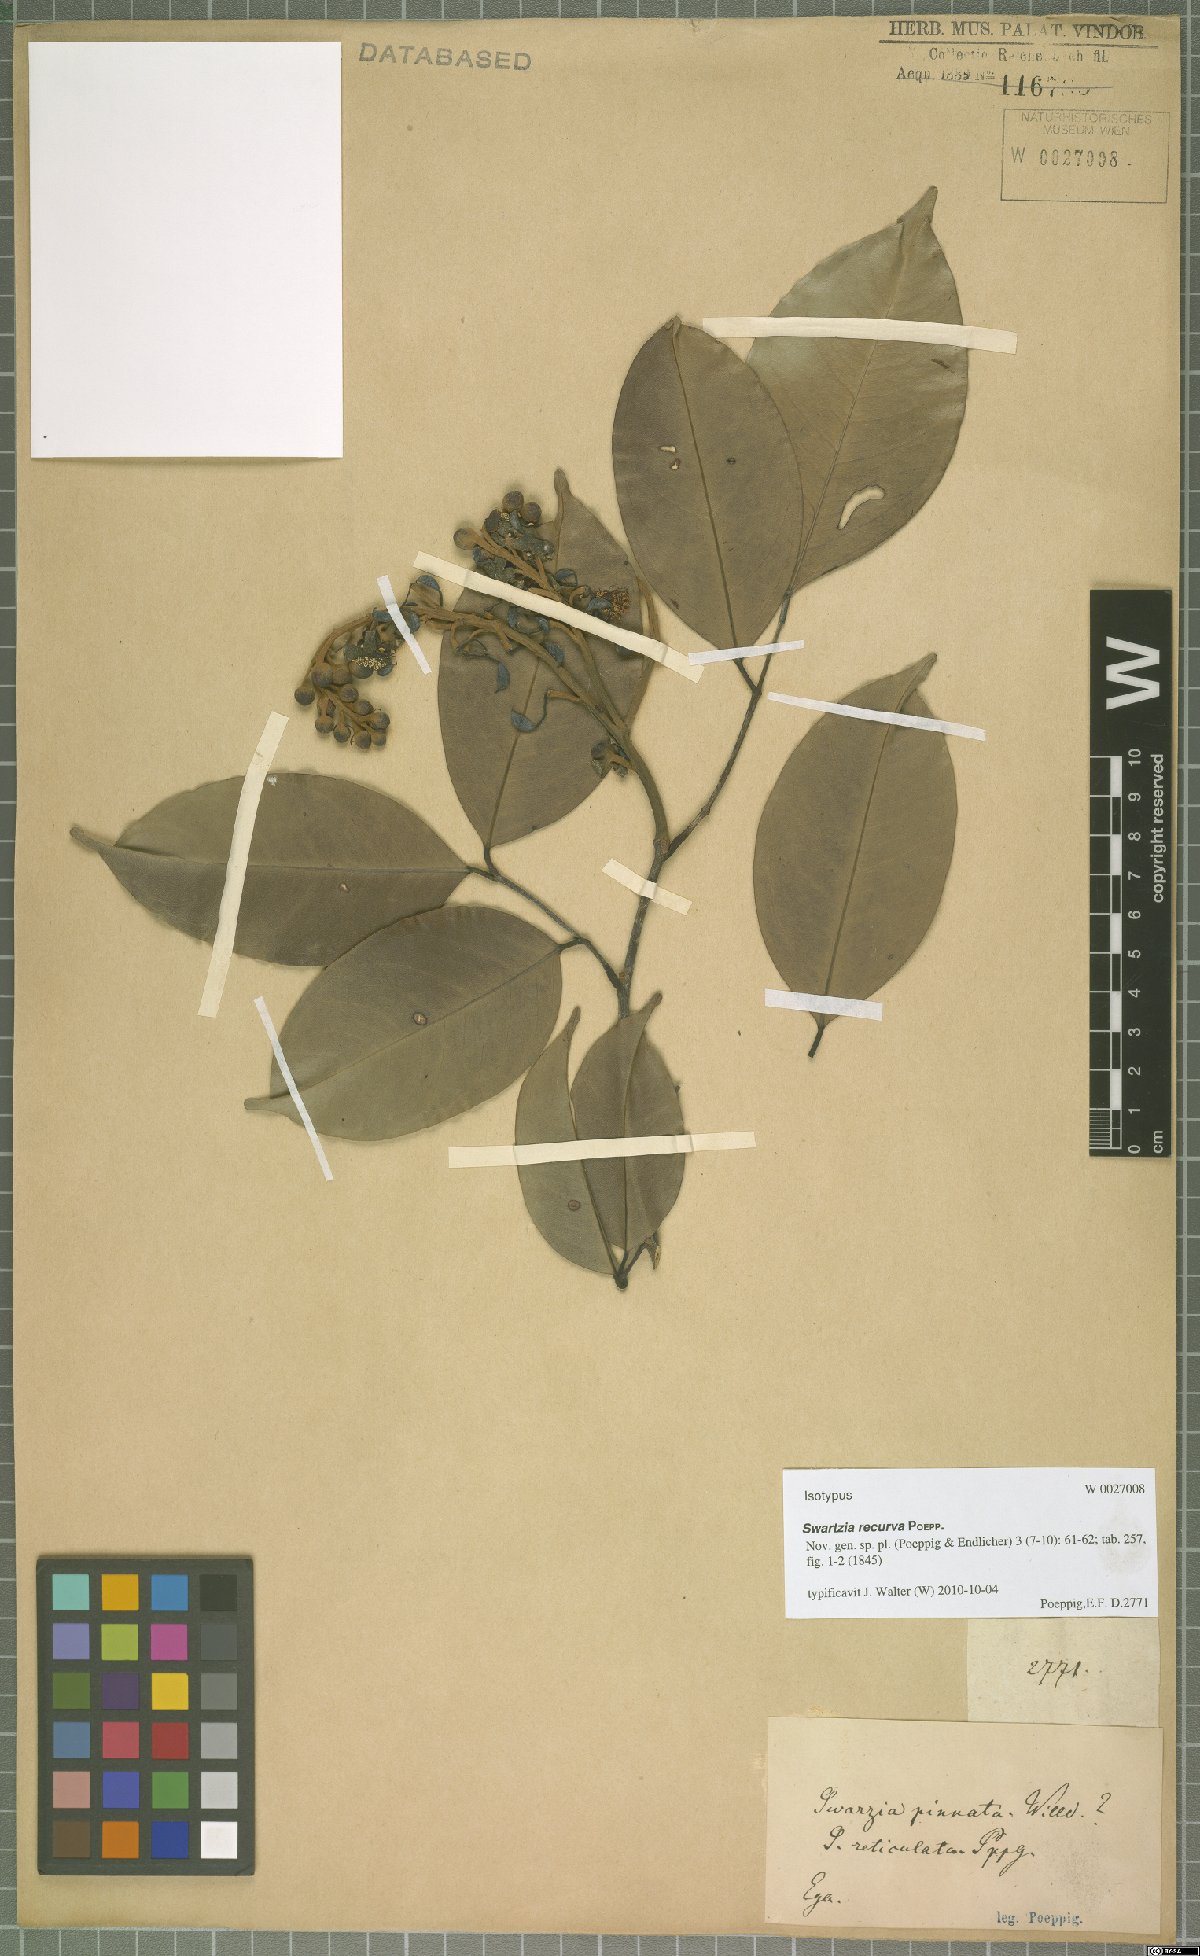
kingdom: Plantae
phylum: Tracheophyta
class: Magnoliopsida
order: Fabales
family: Fabaceae
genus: Swartzia
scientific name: Swartzia recurva
